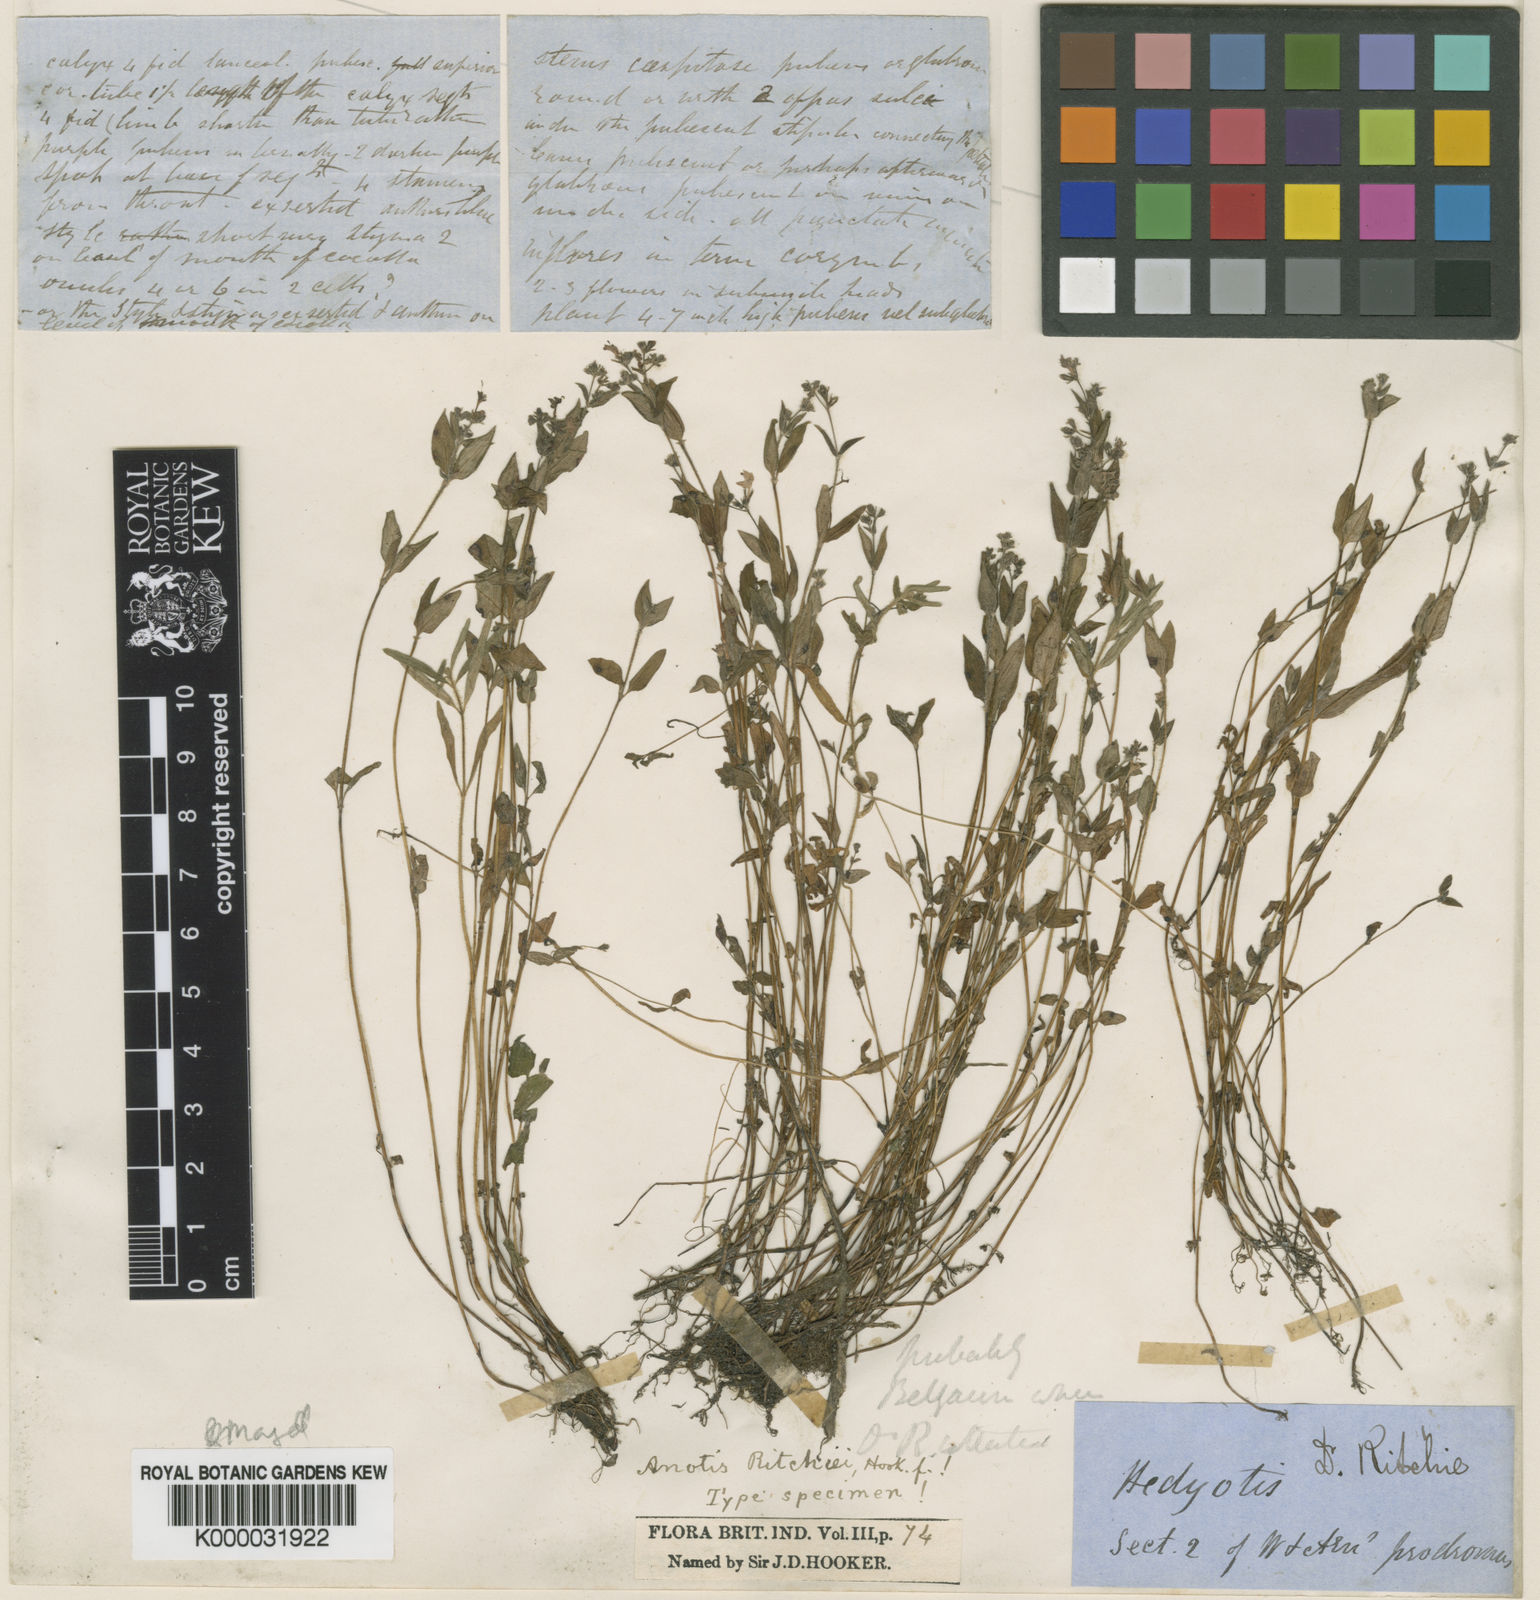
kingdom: Plantae
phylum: Tracheophyta
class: Magnoliopsida
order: Gentianales
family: Rubiaceae
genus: Neanotis
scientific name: Neanotis ritchiei
